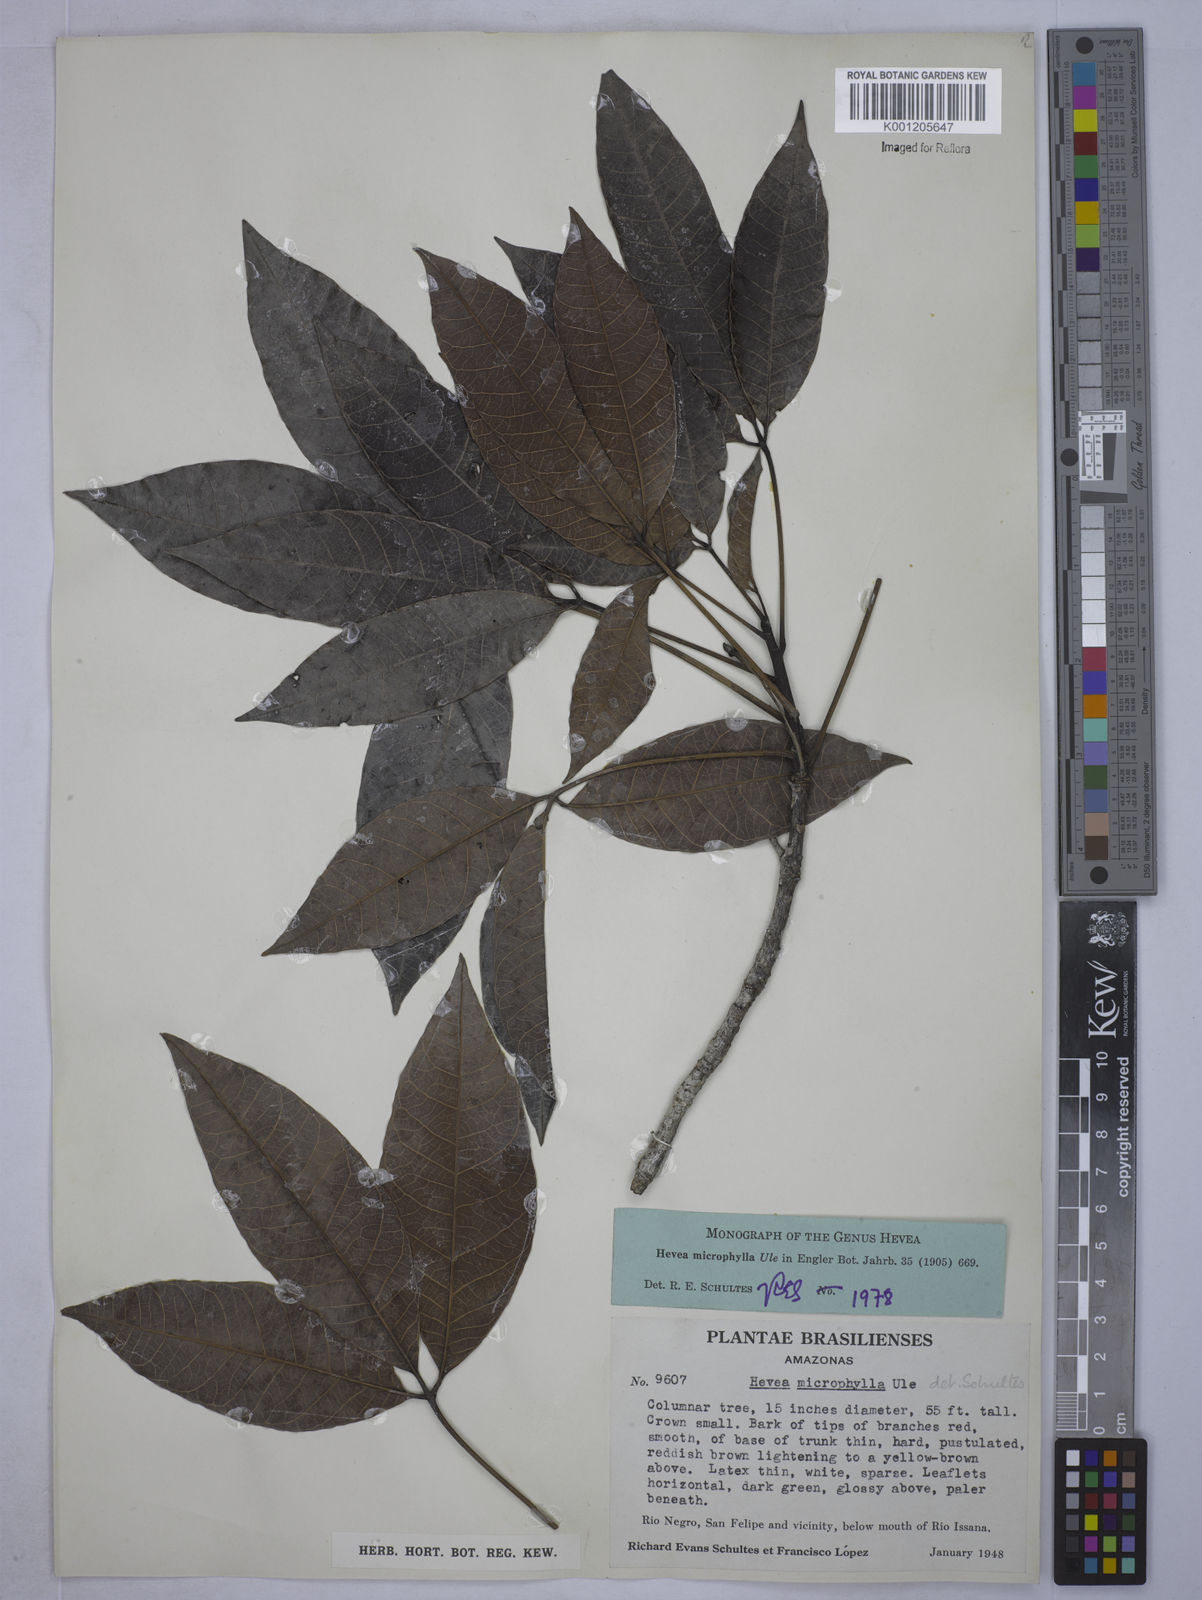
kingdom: Plantae
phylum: Tracheophyta
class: Magnoliopsida
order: Malpighiales
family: Euphorbiaceae
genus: Hevea
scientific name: Hevea microphylla
